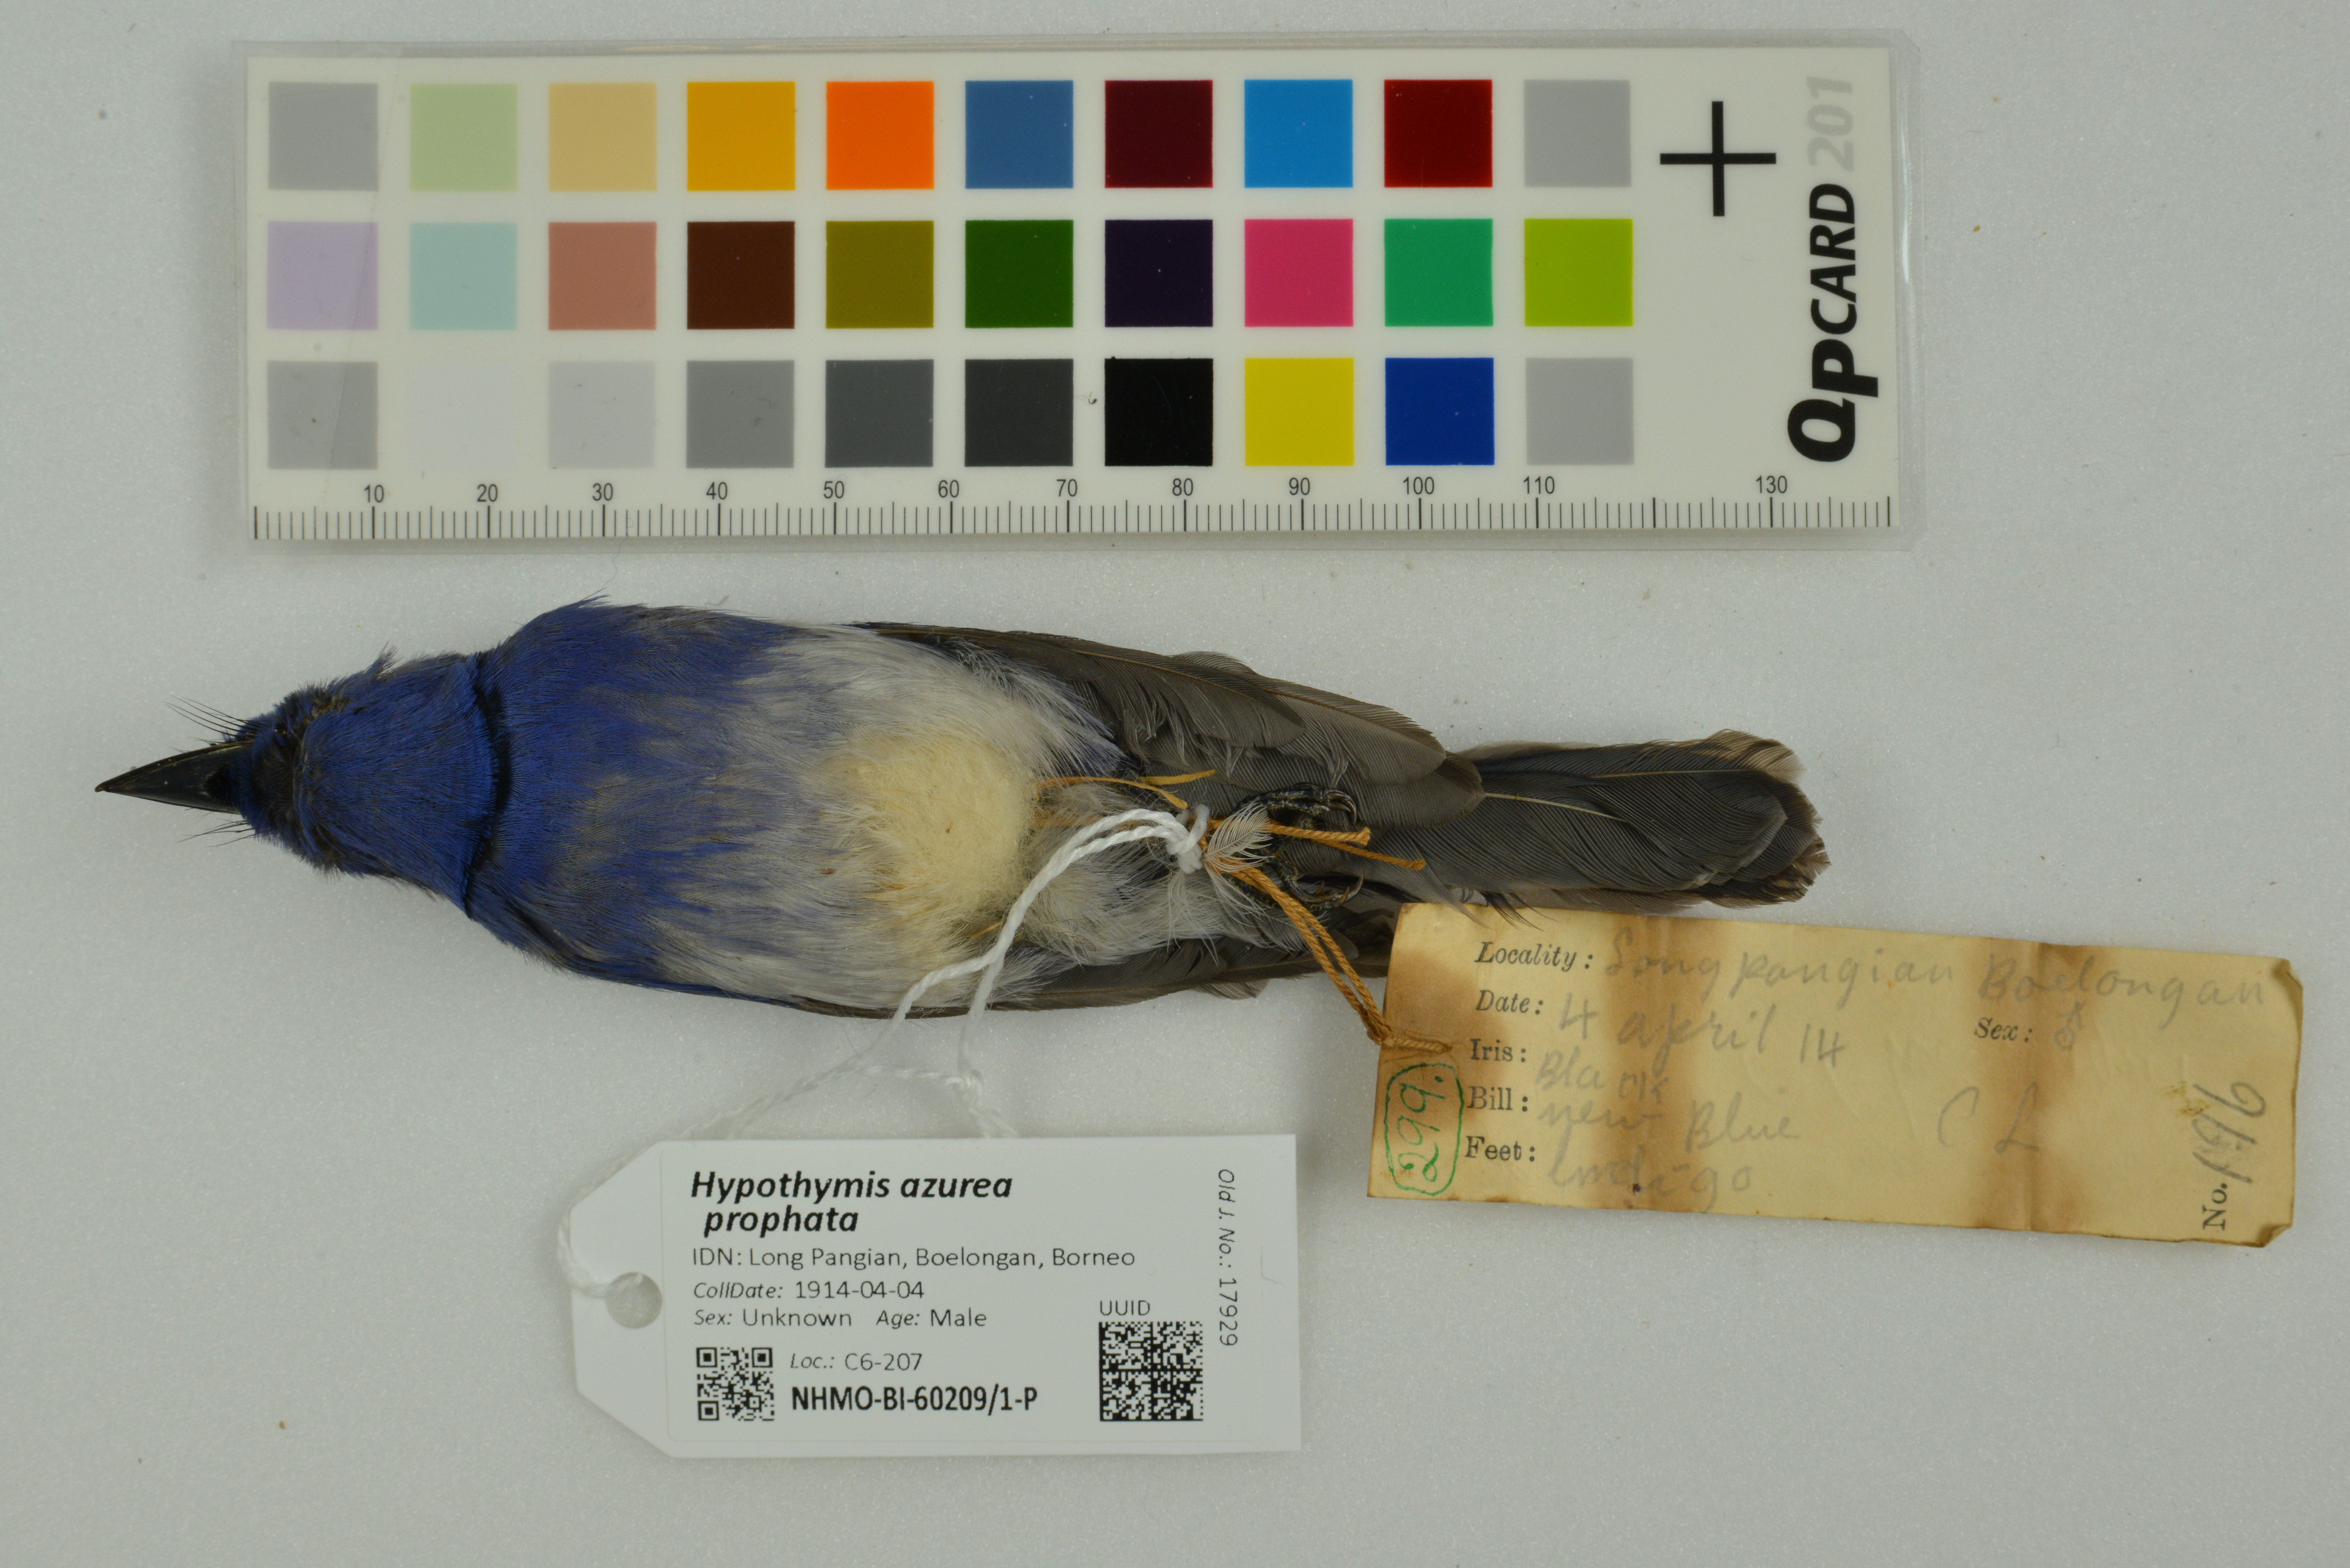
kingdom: Animalia
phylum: Chordata
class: Aves
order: Passeriformes
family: Monarchidae
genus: Hypothymis
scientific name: Hypothymis azurea
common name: Black-naped monarch
